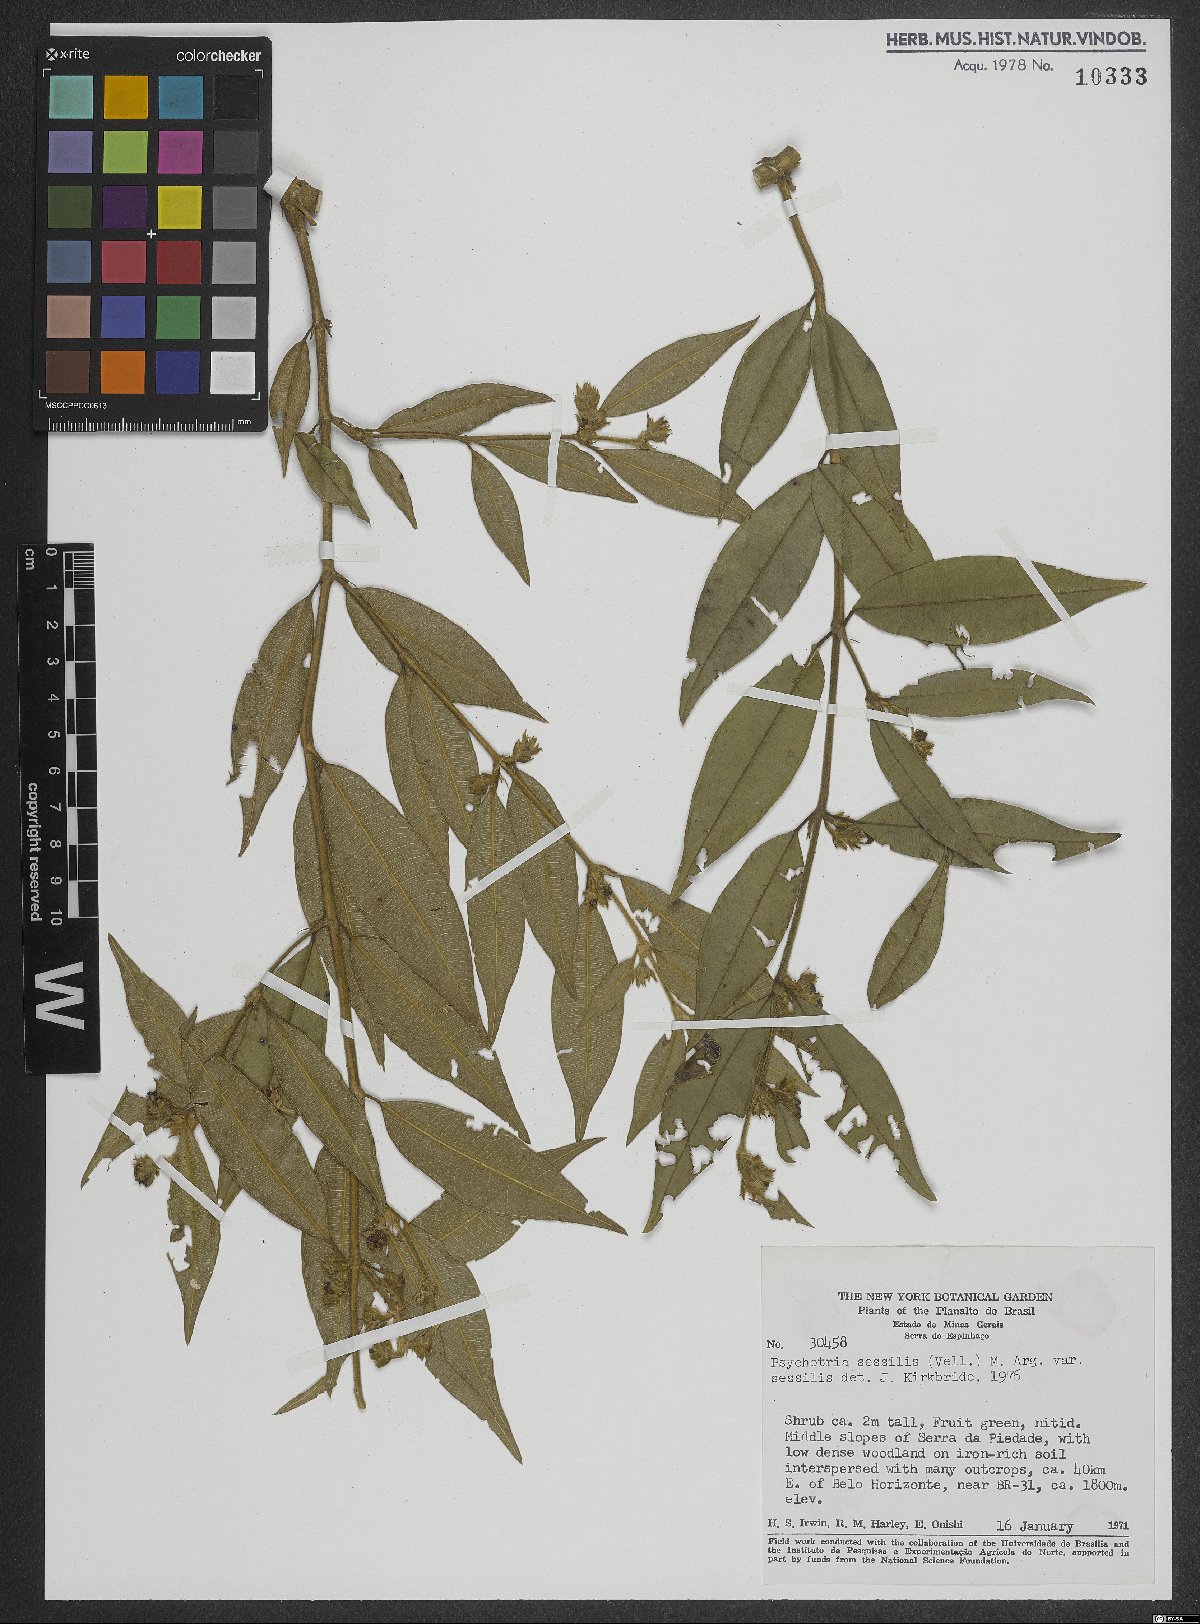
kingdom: Plantae
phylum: Tracheophyta
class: Magnoliopsida
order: Gentianales
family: Rubiaceae
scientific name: Rubiaceae
